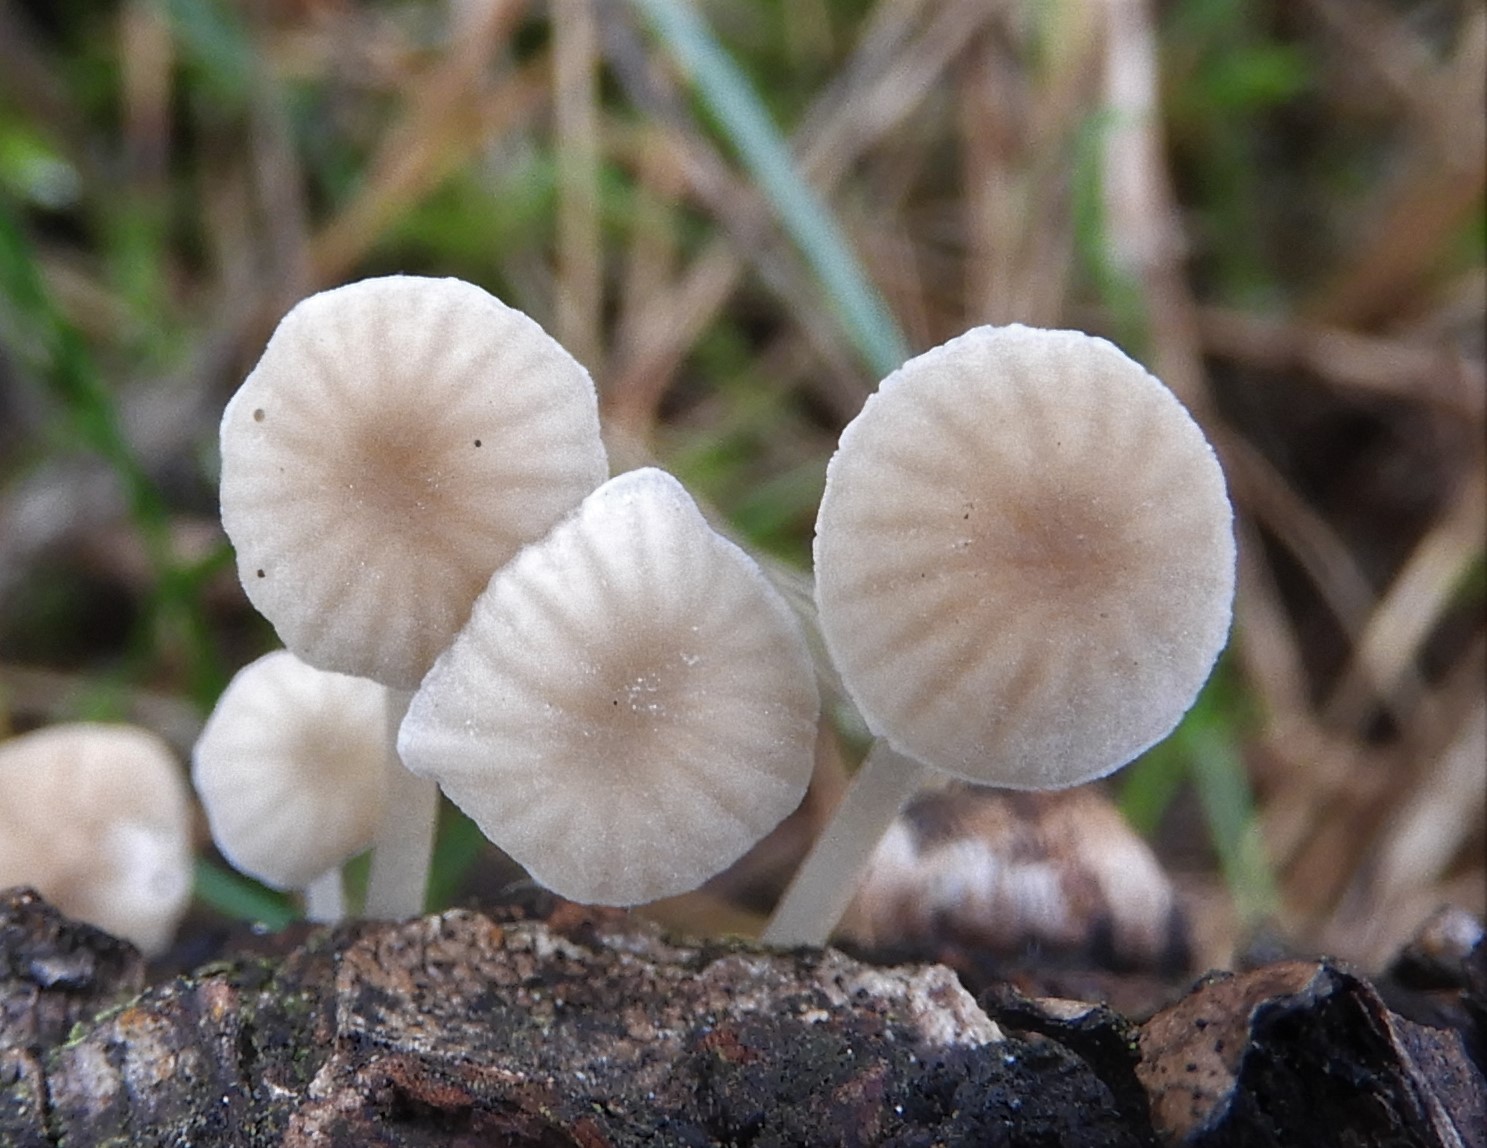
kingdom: Fungi
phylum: Basidiomycota
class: Agaricomycetes
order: Agaricales
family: Porotheleaceae
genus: Phloeomana
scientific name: Phloeomana speirea
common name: kvist-huesvamp
